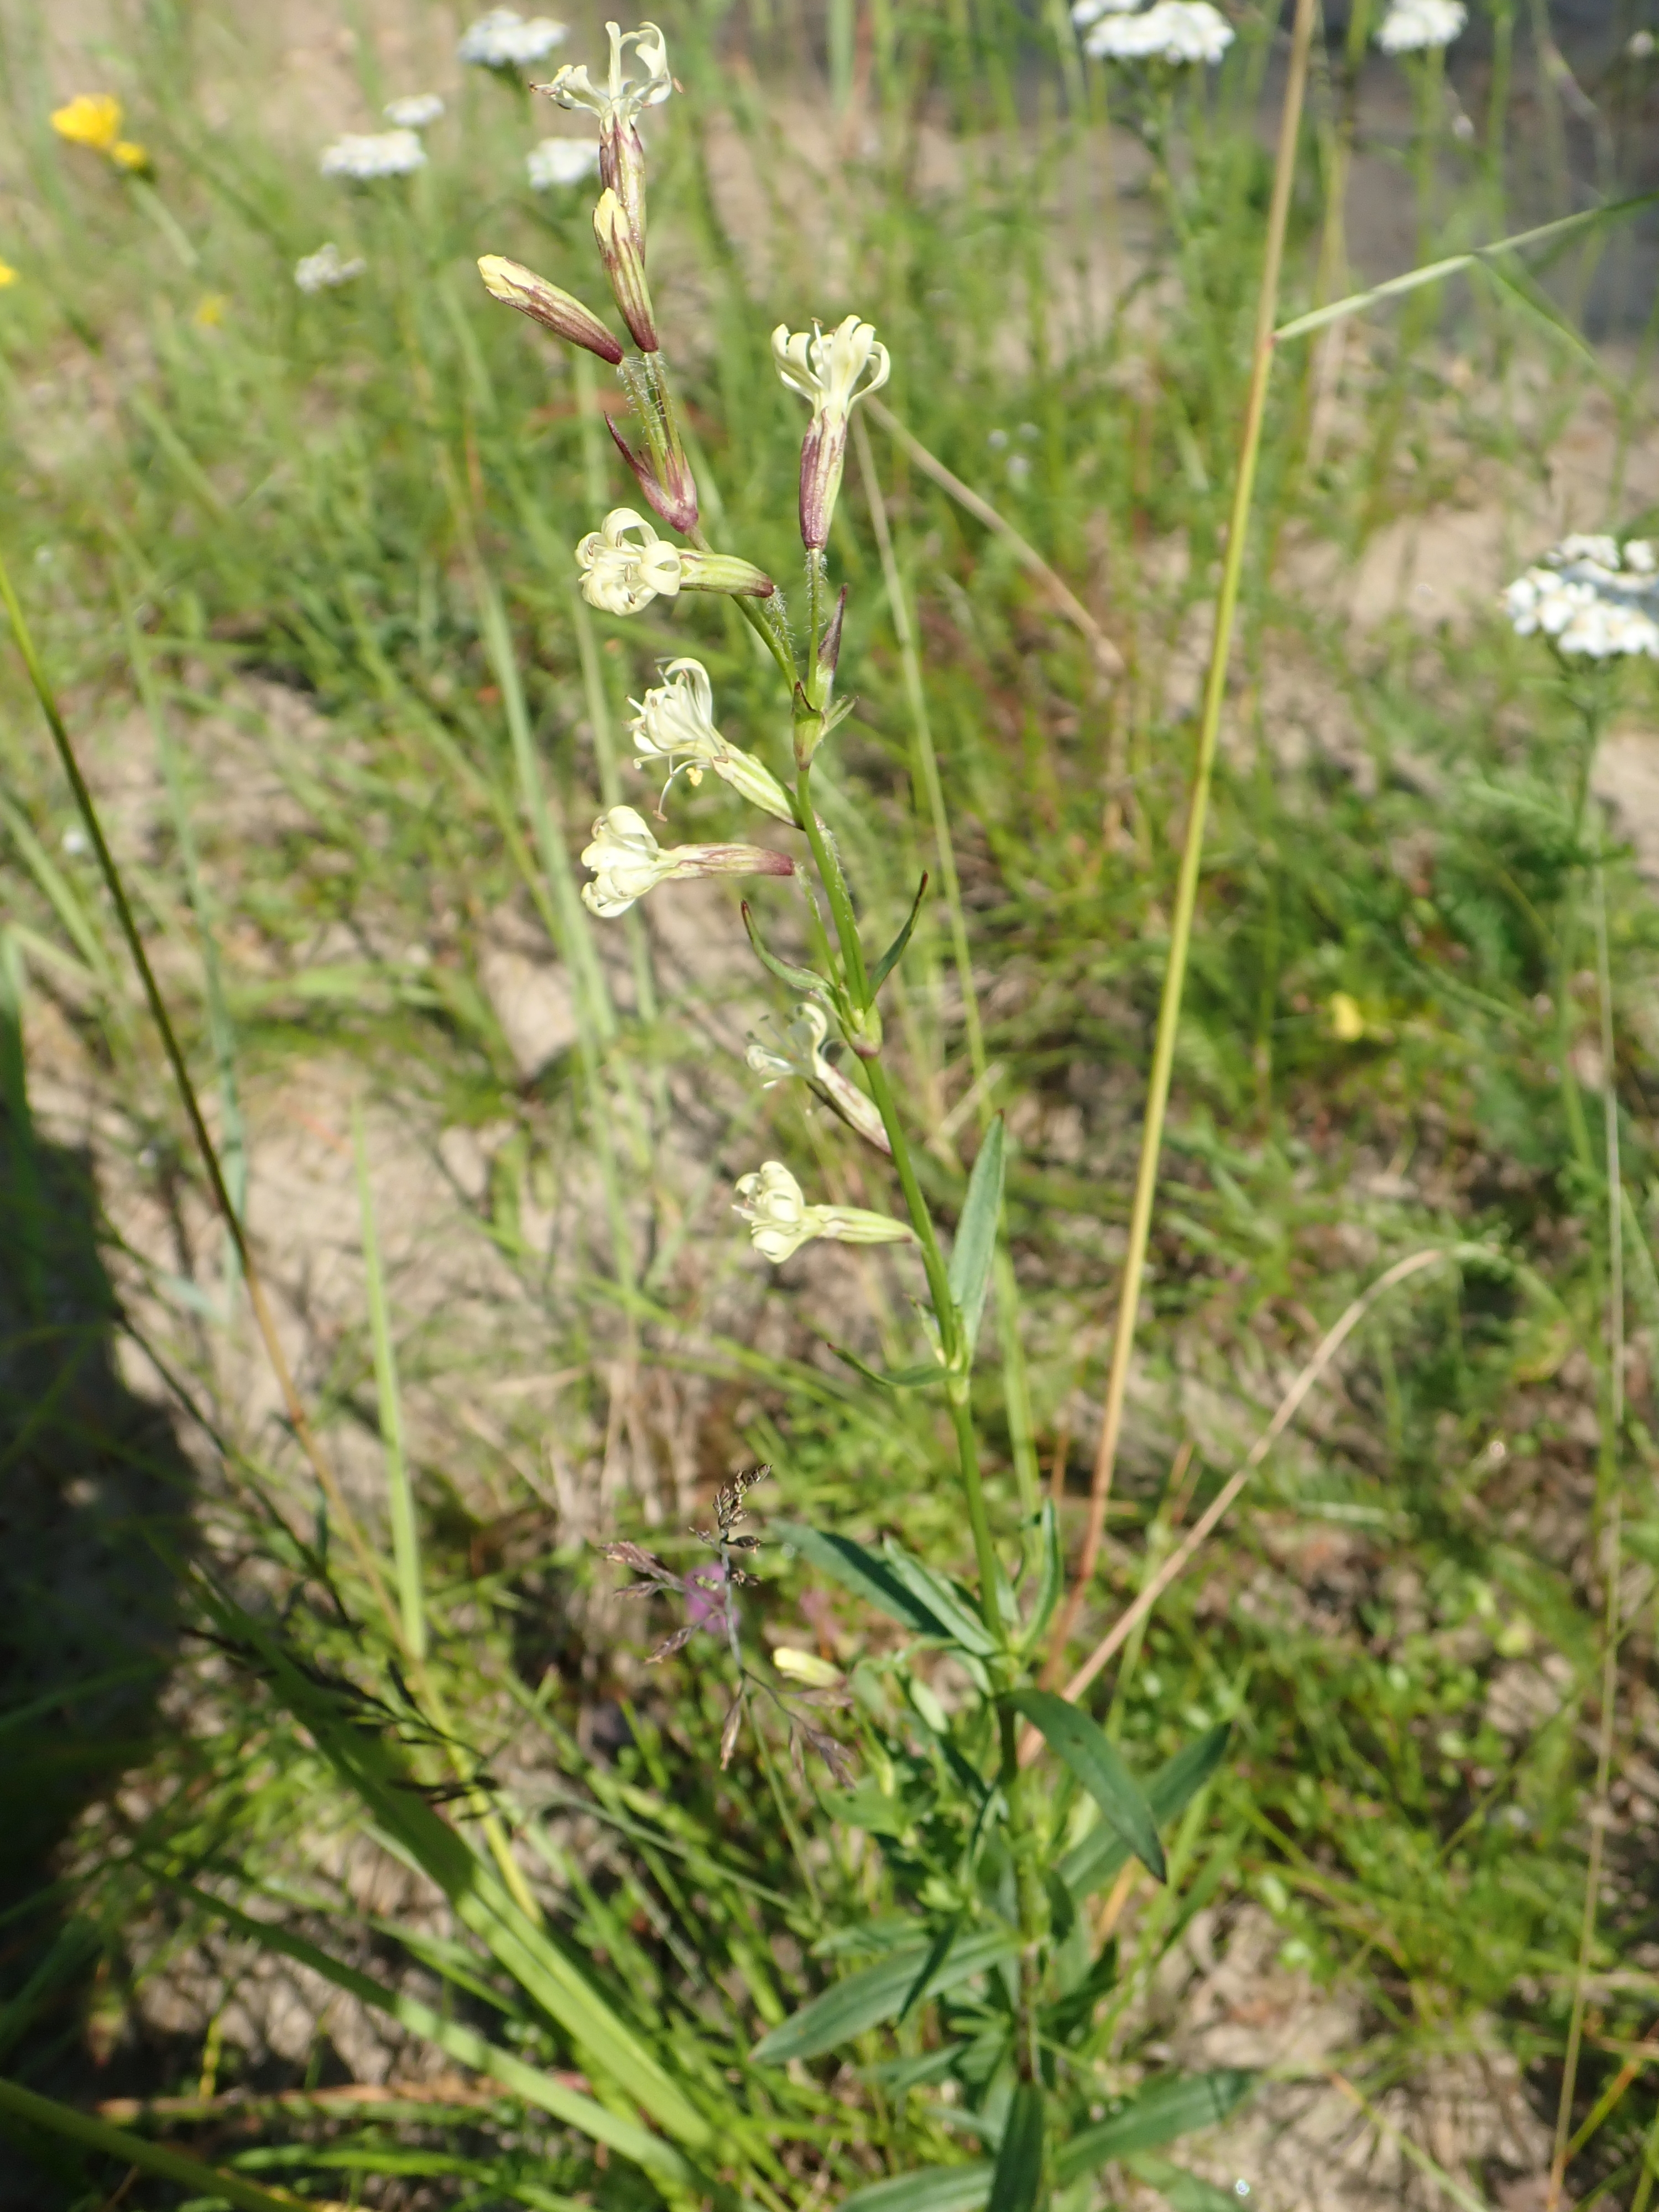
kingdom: Plantae
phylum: Tracheophyta
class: Magnoliopsida
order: Caryophyllales
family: Caryophyllaceae
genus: Silene
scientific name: Silene tatarica
